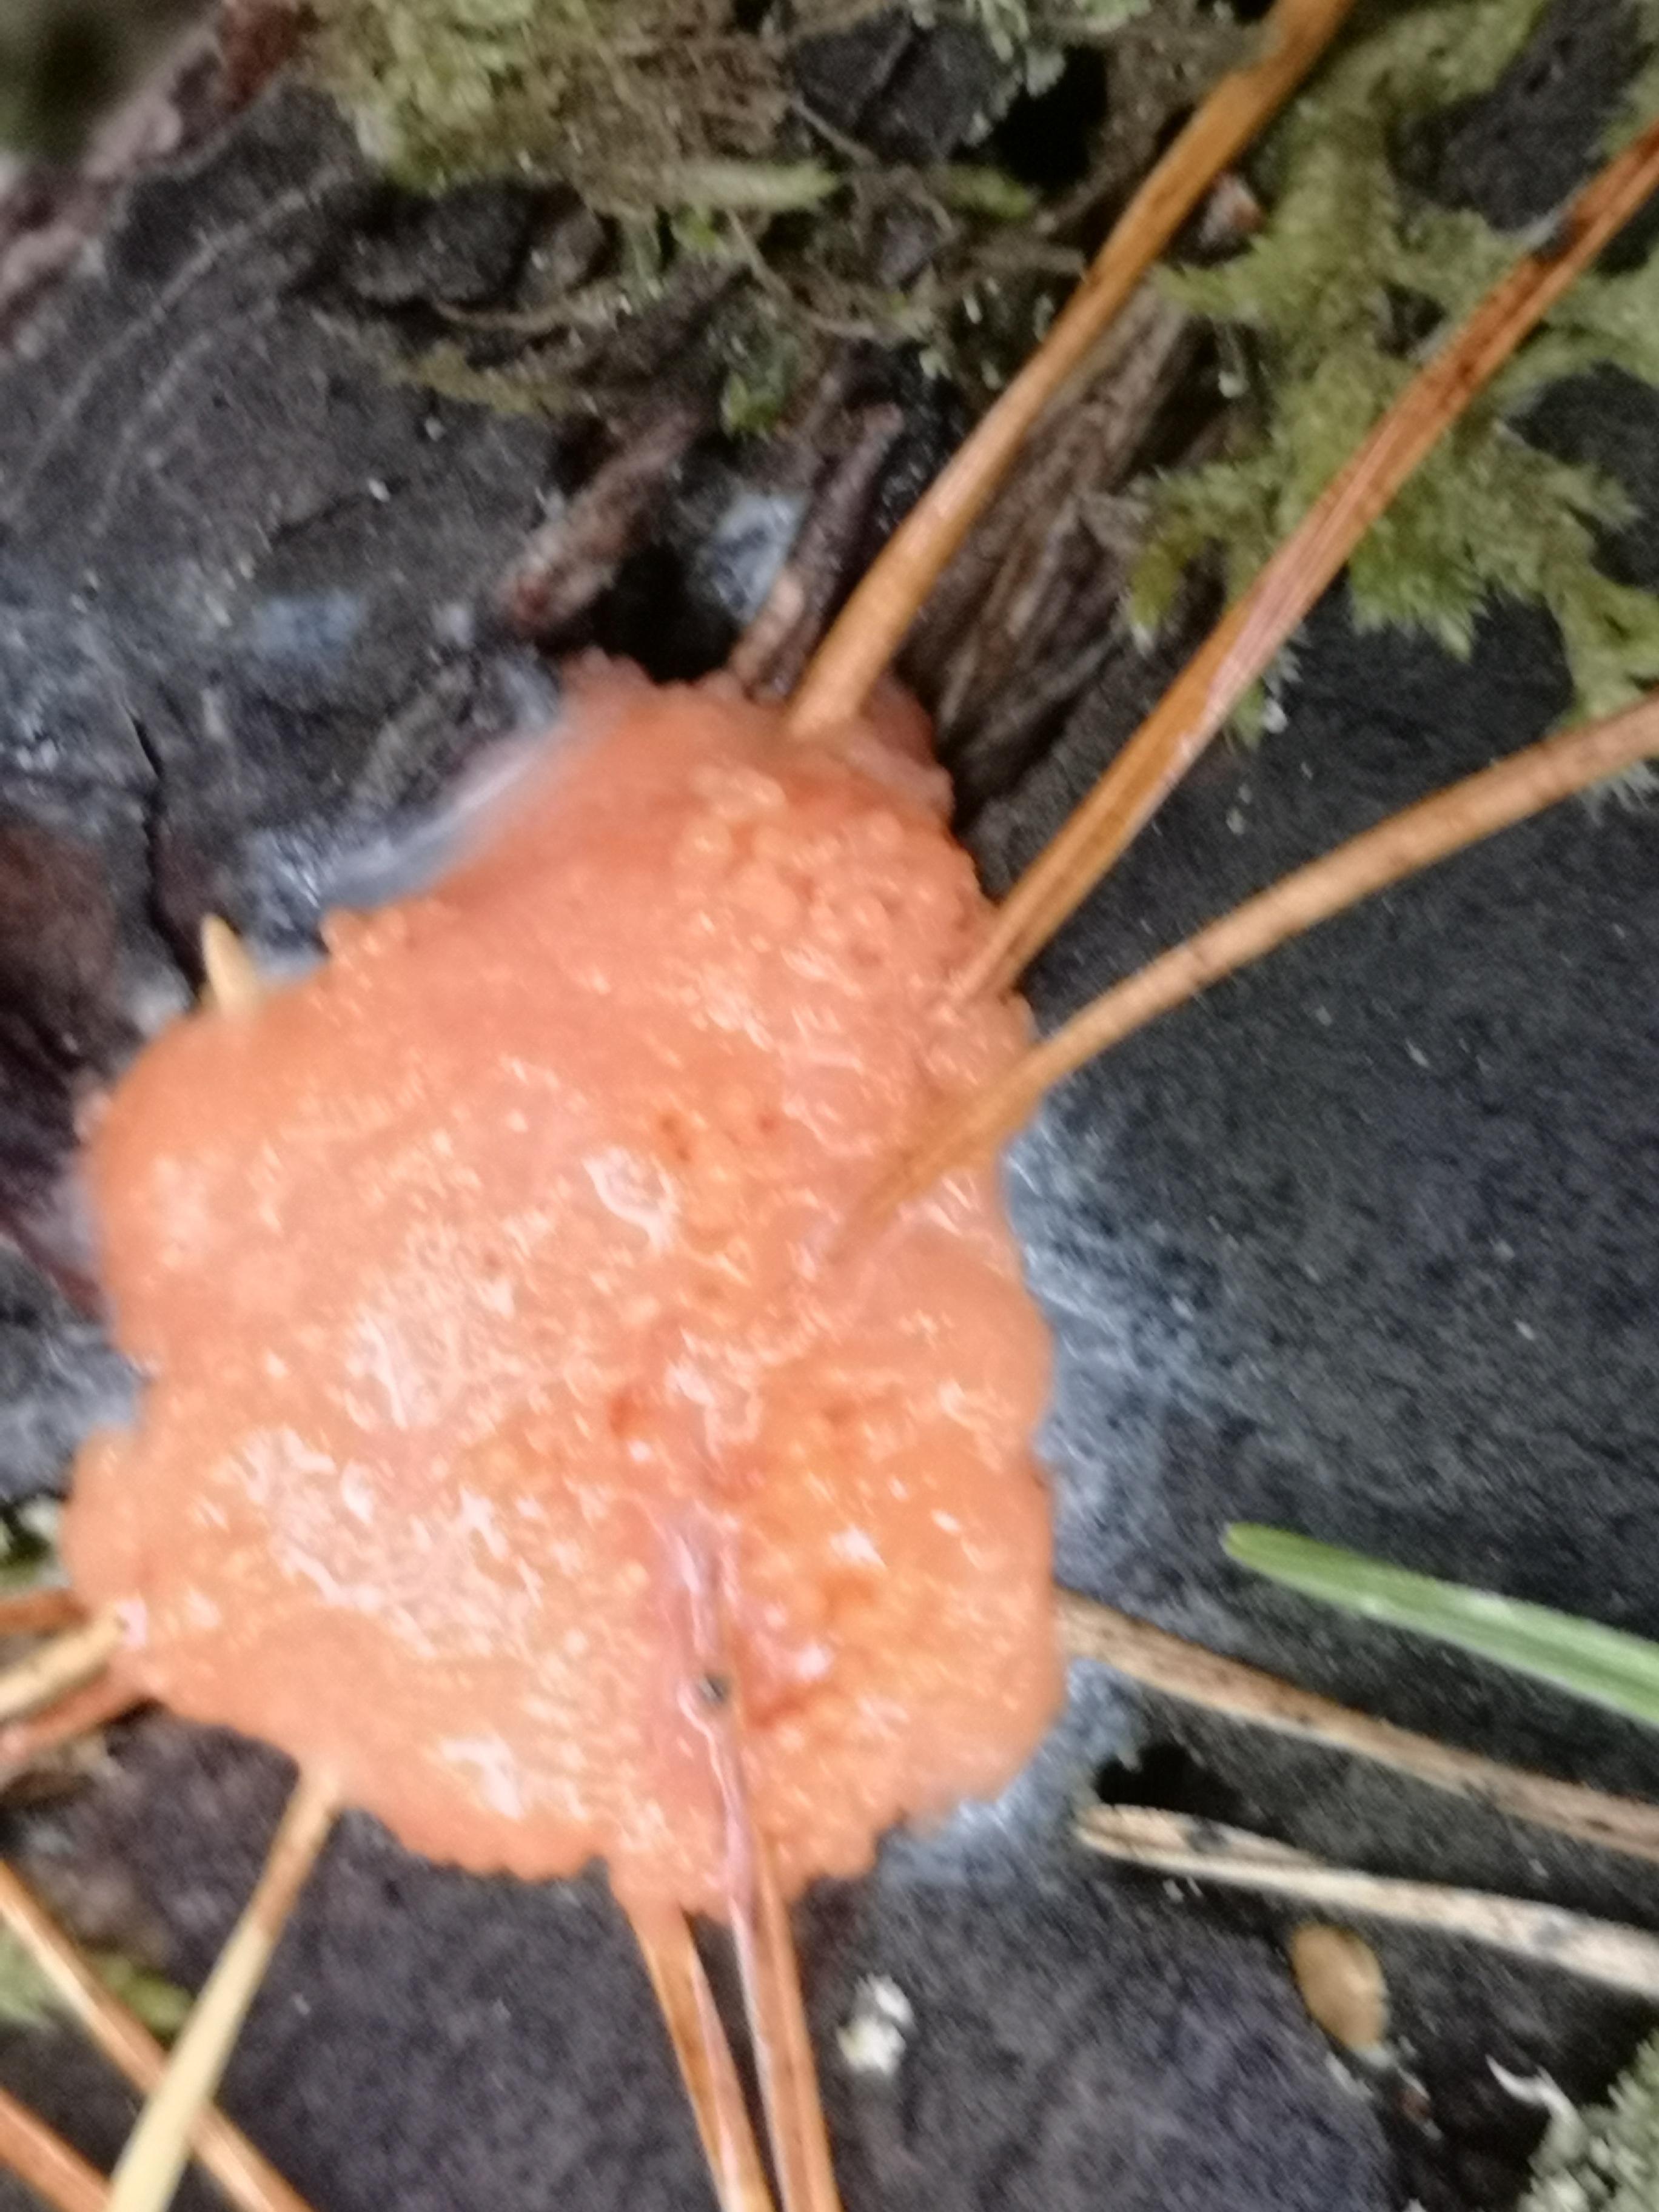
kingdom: Protozoa
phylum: Mycetozoa
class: Myxomycetes
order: Cribrariales
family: Tubiferaceae
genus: Tubifera
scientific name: Tubifera ferruginosa
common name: kanel-støvrør
